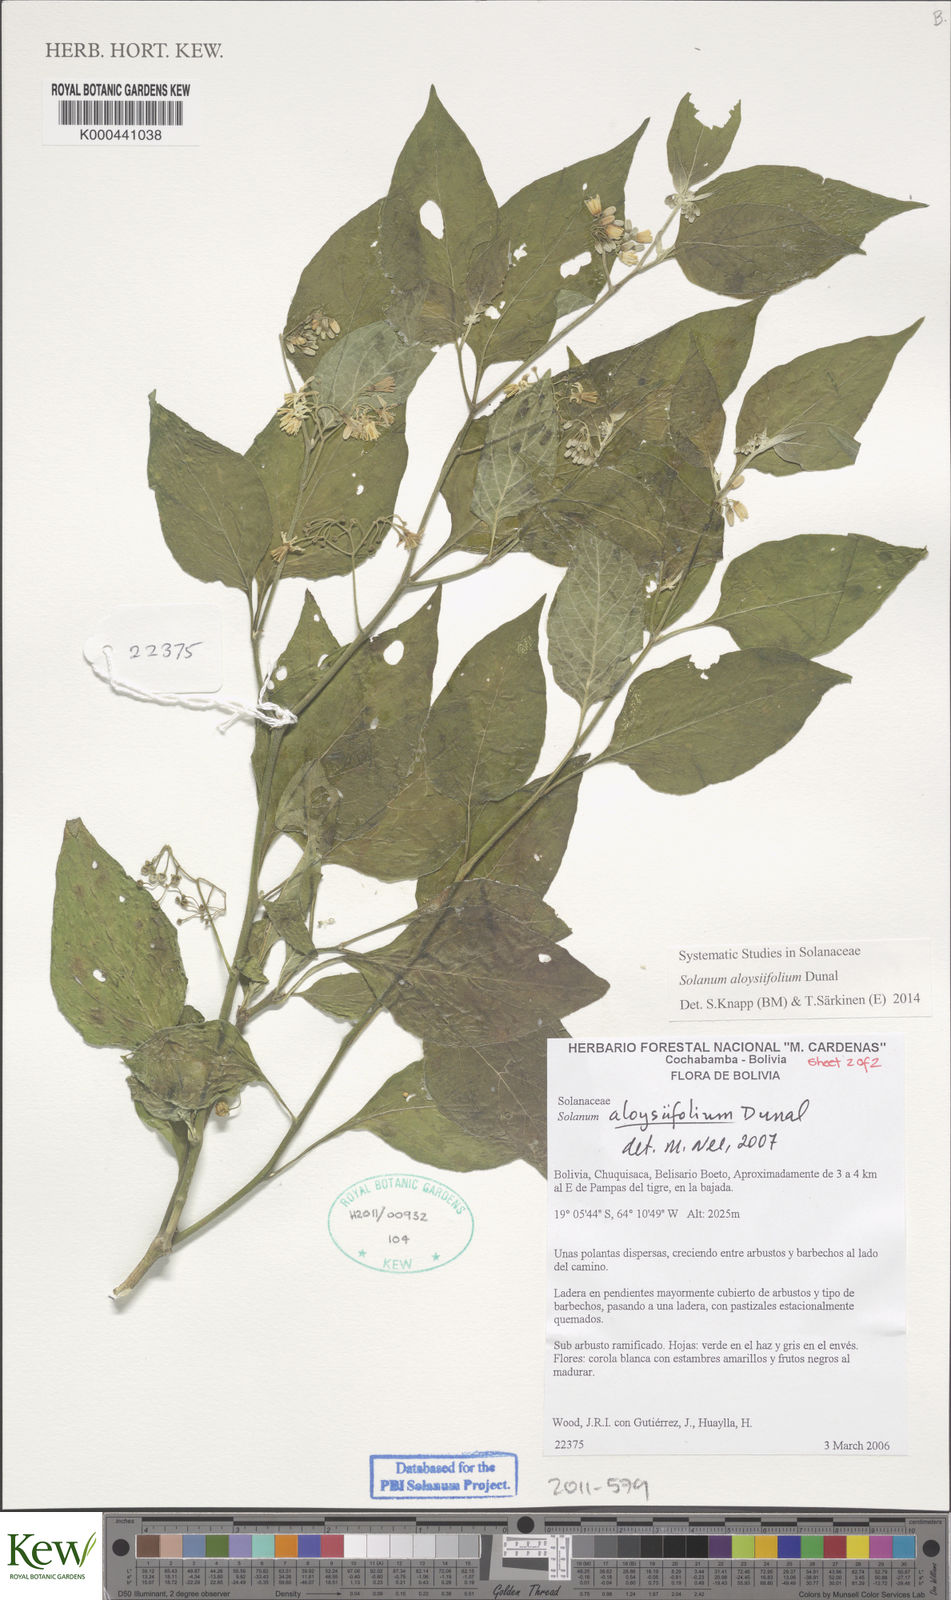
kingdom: Plantae
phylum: Tracheophyta
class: Magnoliopsida
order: Solanales
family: Solanaceae
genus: Solanum
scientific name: Solanum aloysiifolium
